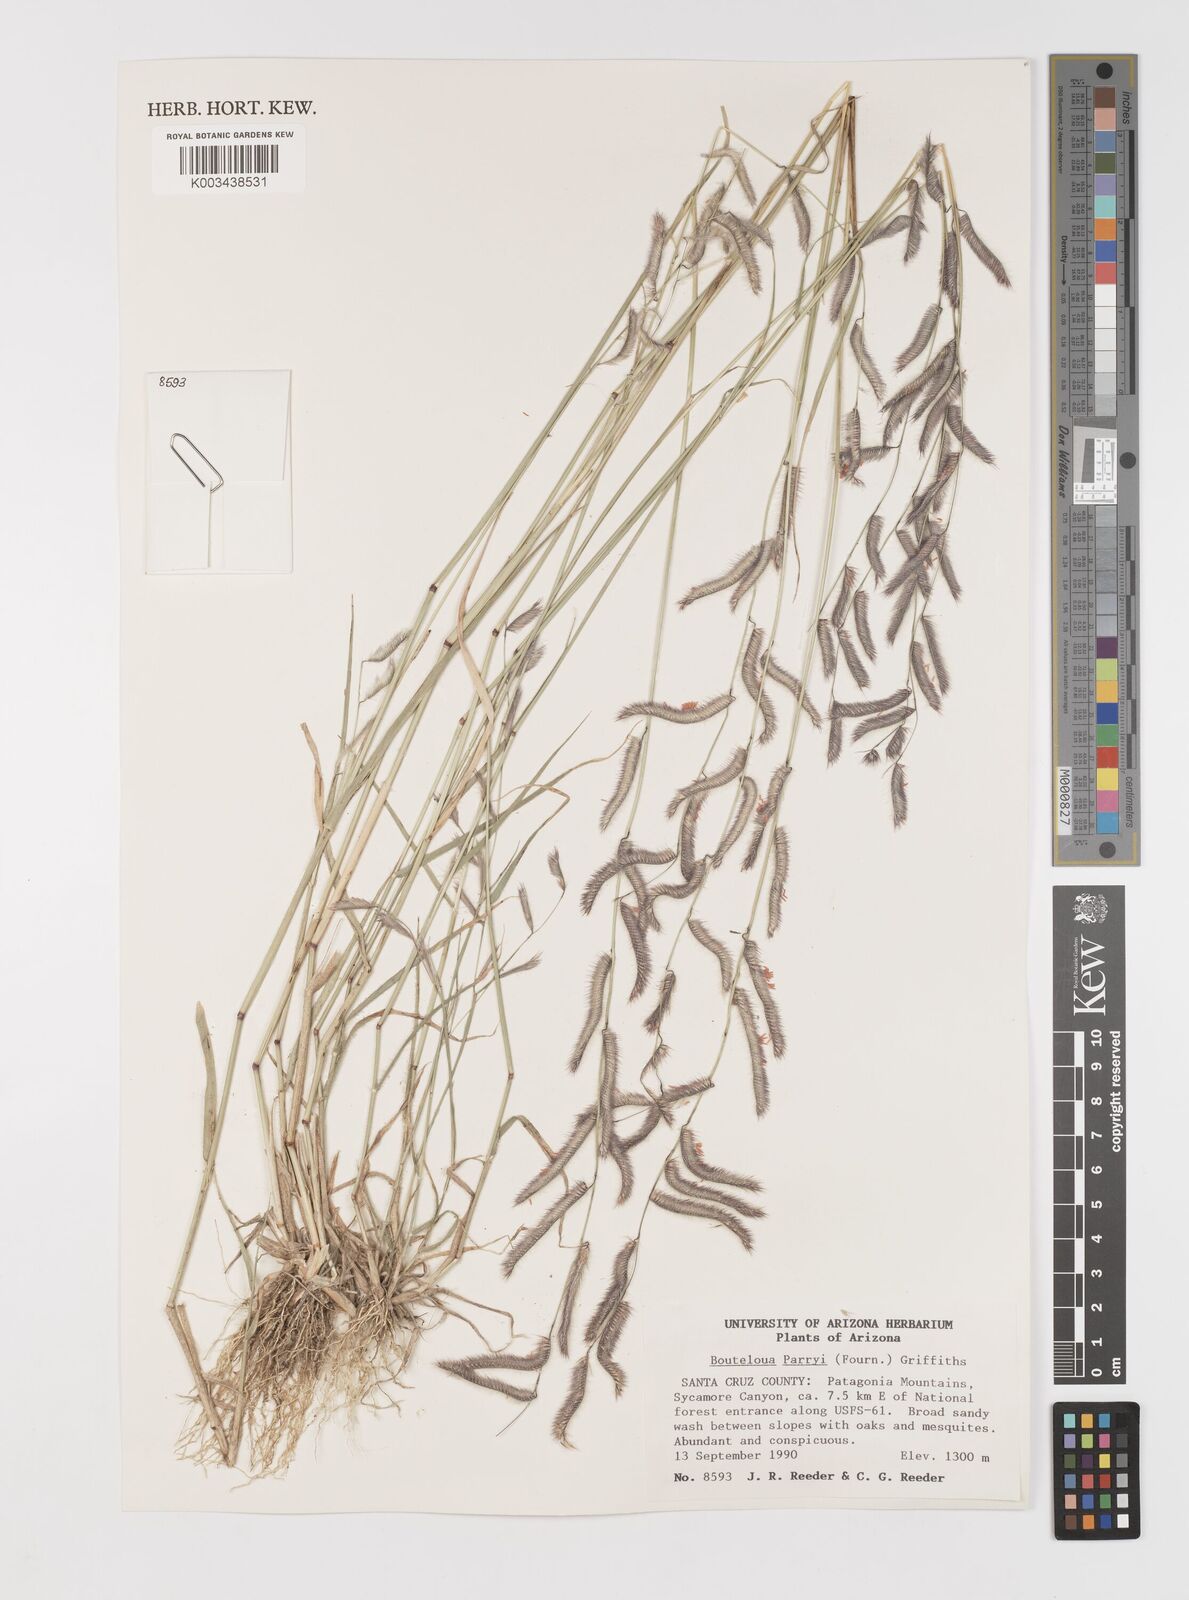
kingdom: Plantae
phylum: Tracheophyta
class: Liliopsida
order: Poales
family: Poaceae
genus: Bouteloua
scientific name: Bouteloua parryi
